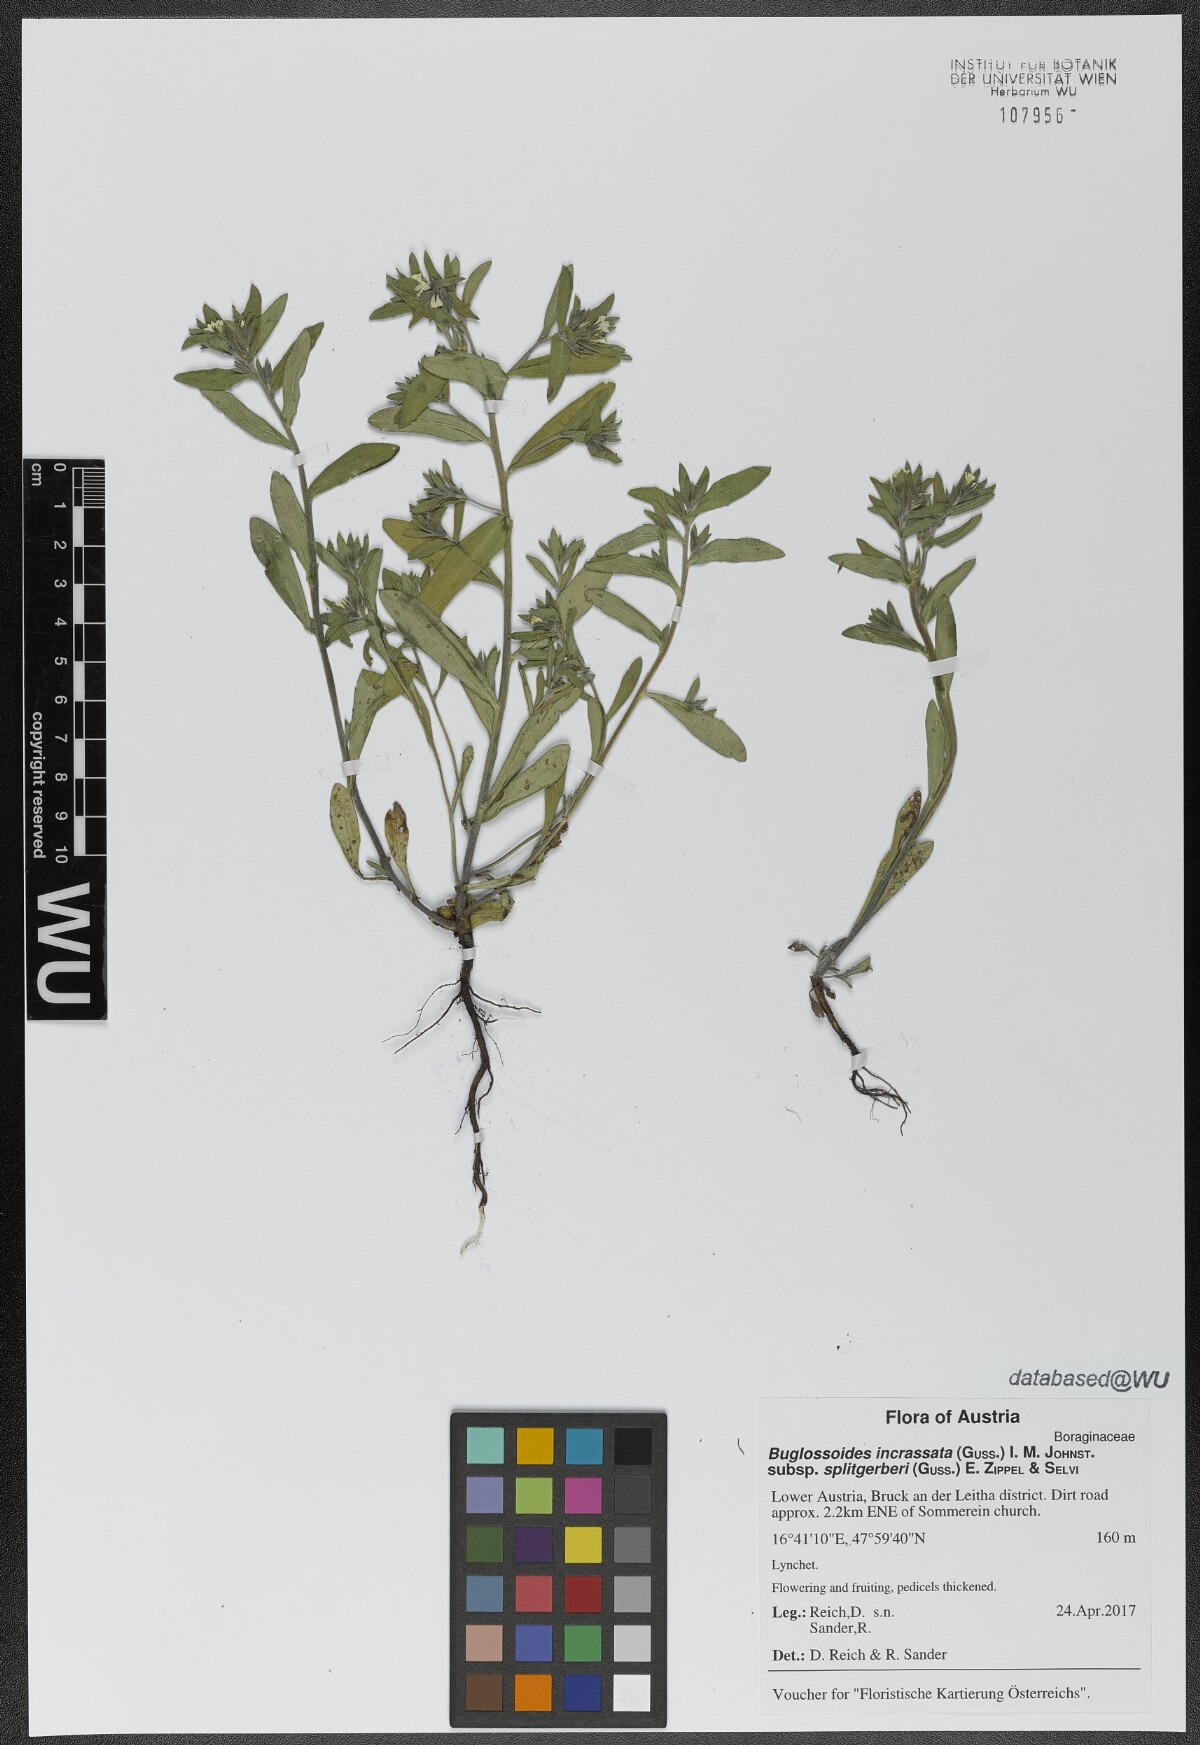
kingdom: Plantae
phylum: Tracheophyta
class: Magnoliopsida
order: Boraginales
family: Boraginaceae
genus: Buglossoides
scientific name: Buglossoides incrassata
